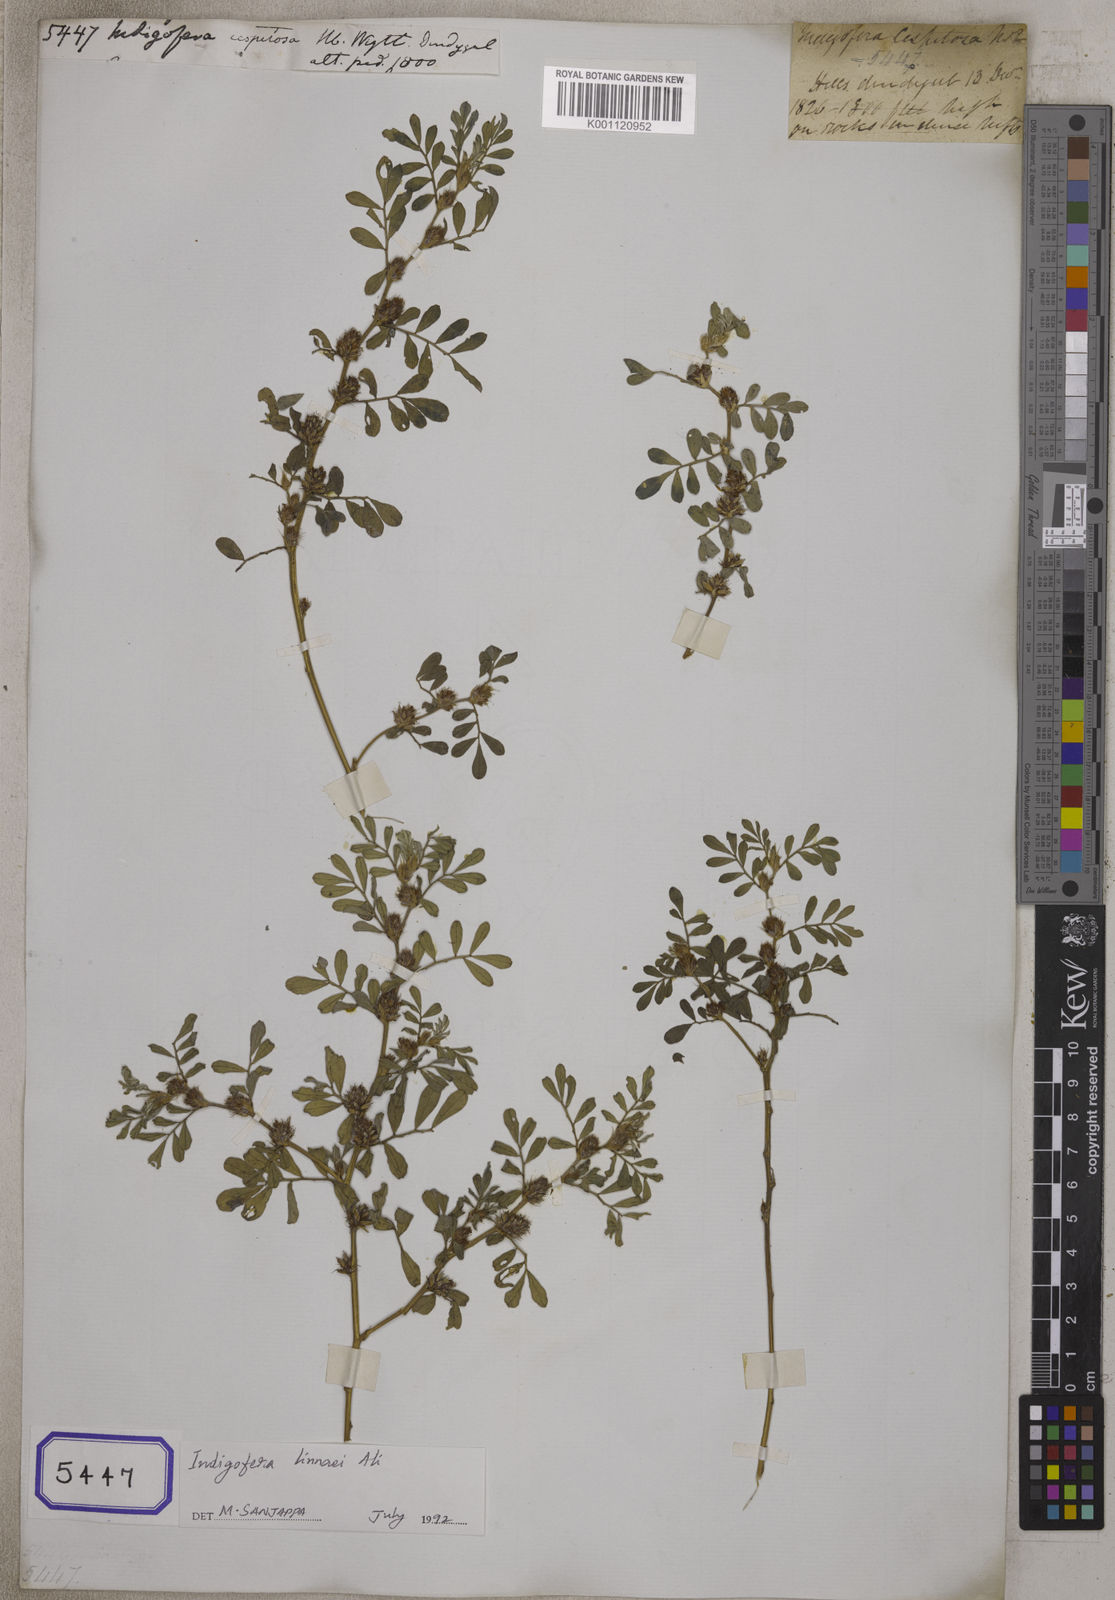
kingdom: Plantae
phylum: Tracheophyta
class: Magnoliopsida
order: Fabales
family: Fabaceae
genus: Indigofera
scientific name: Indigofera linnaei
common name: Nine-leaf indigo
